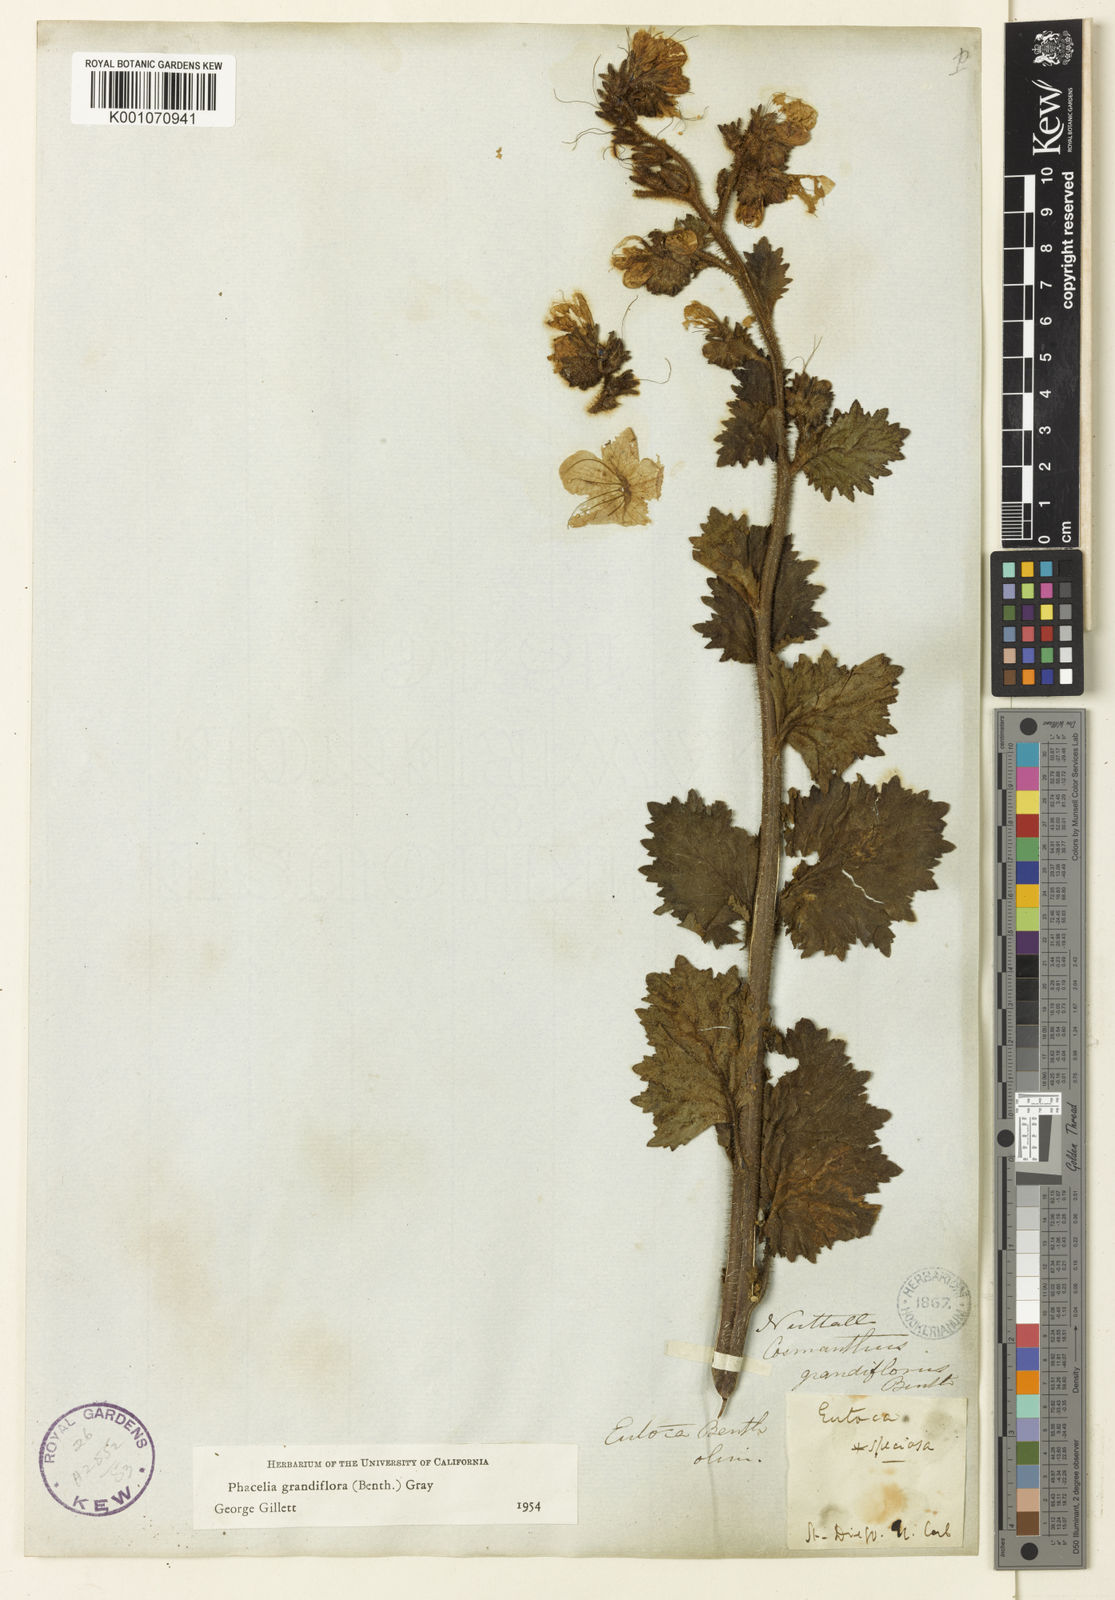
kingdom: Plantae
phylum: Tracheophyta
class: Magnoliopsida
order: Boraginales
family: Hydrophyllaceae
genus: Phacelia
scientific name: Phacelia grandiflora
